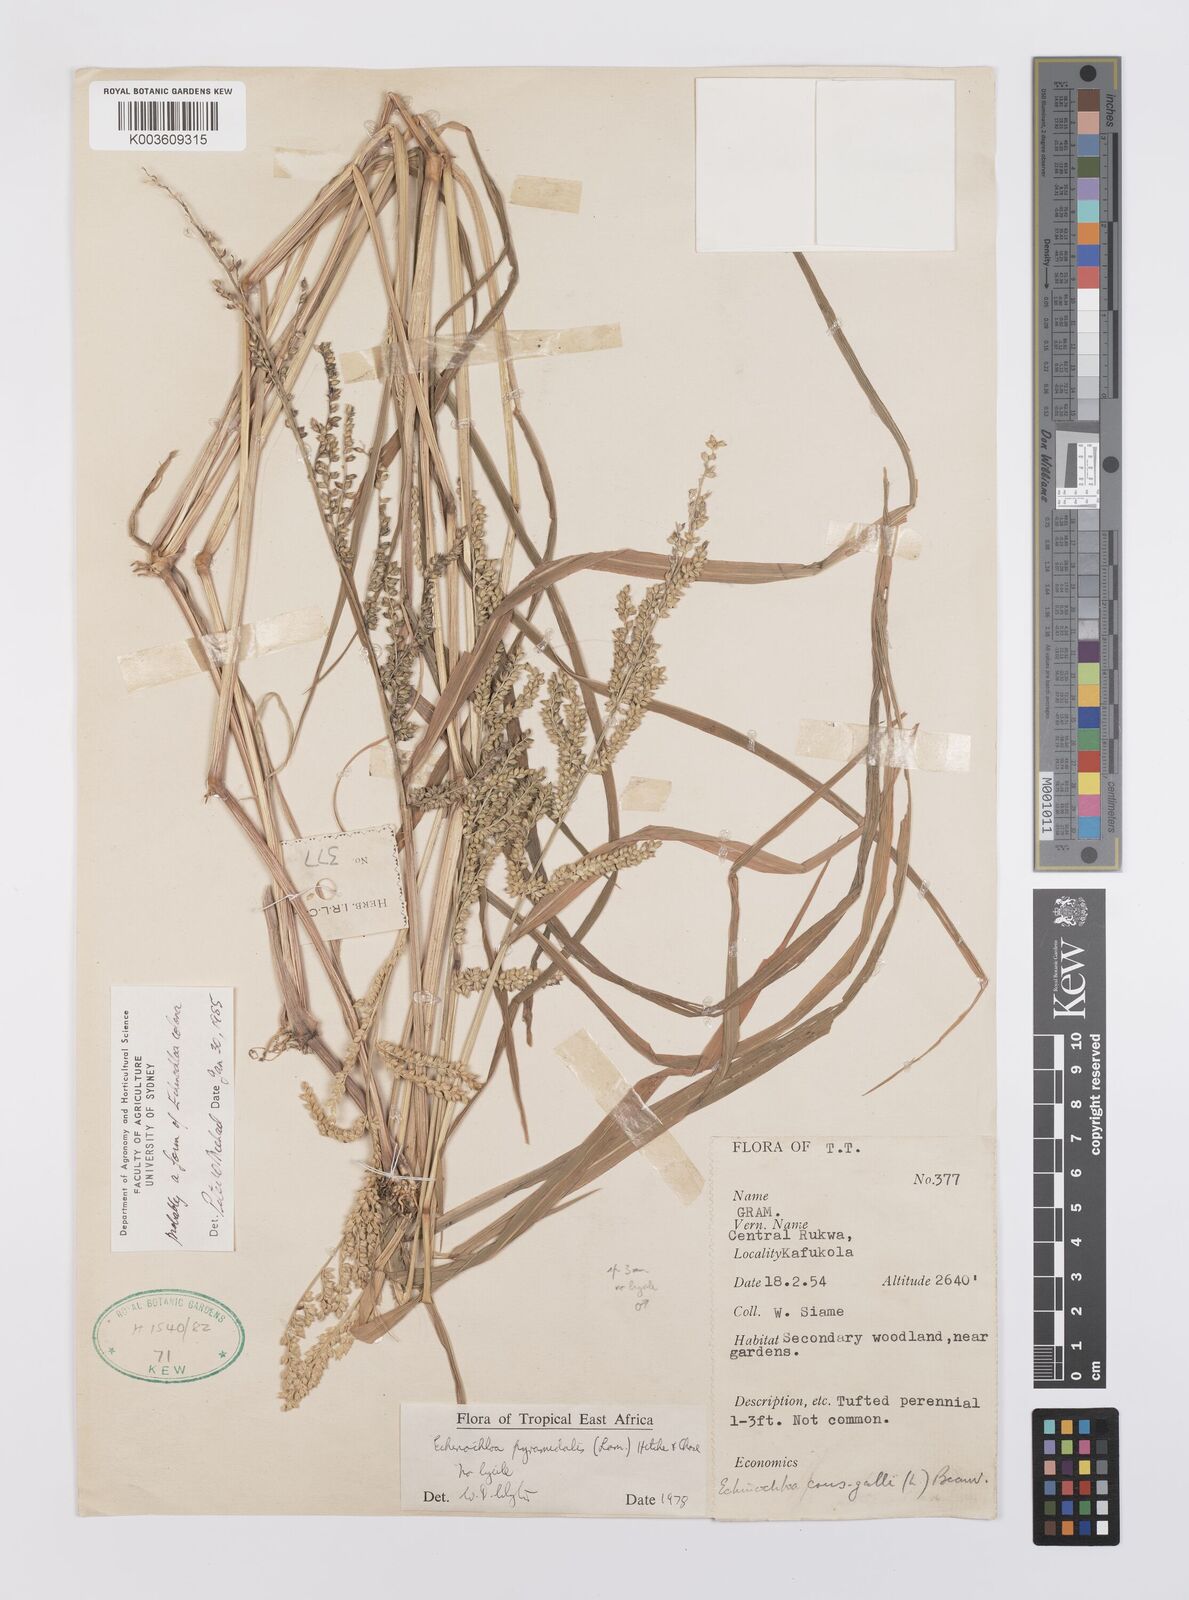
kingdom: Plantae
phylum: Tracheophyta
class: Liliopsida
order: Poales
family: Poaceae
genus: Echinochloa
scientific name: Echinochloa colonum
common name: Jungle rice
